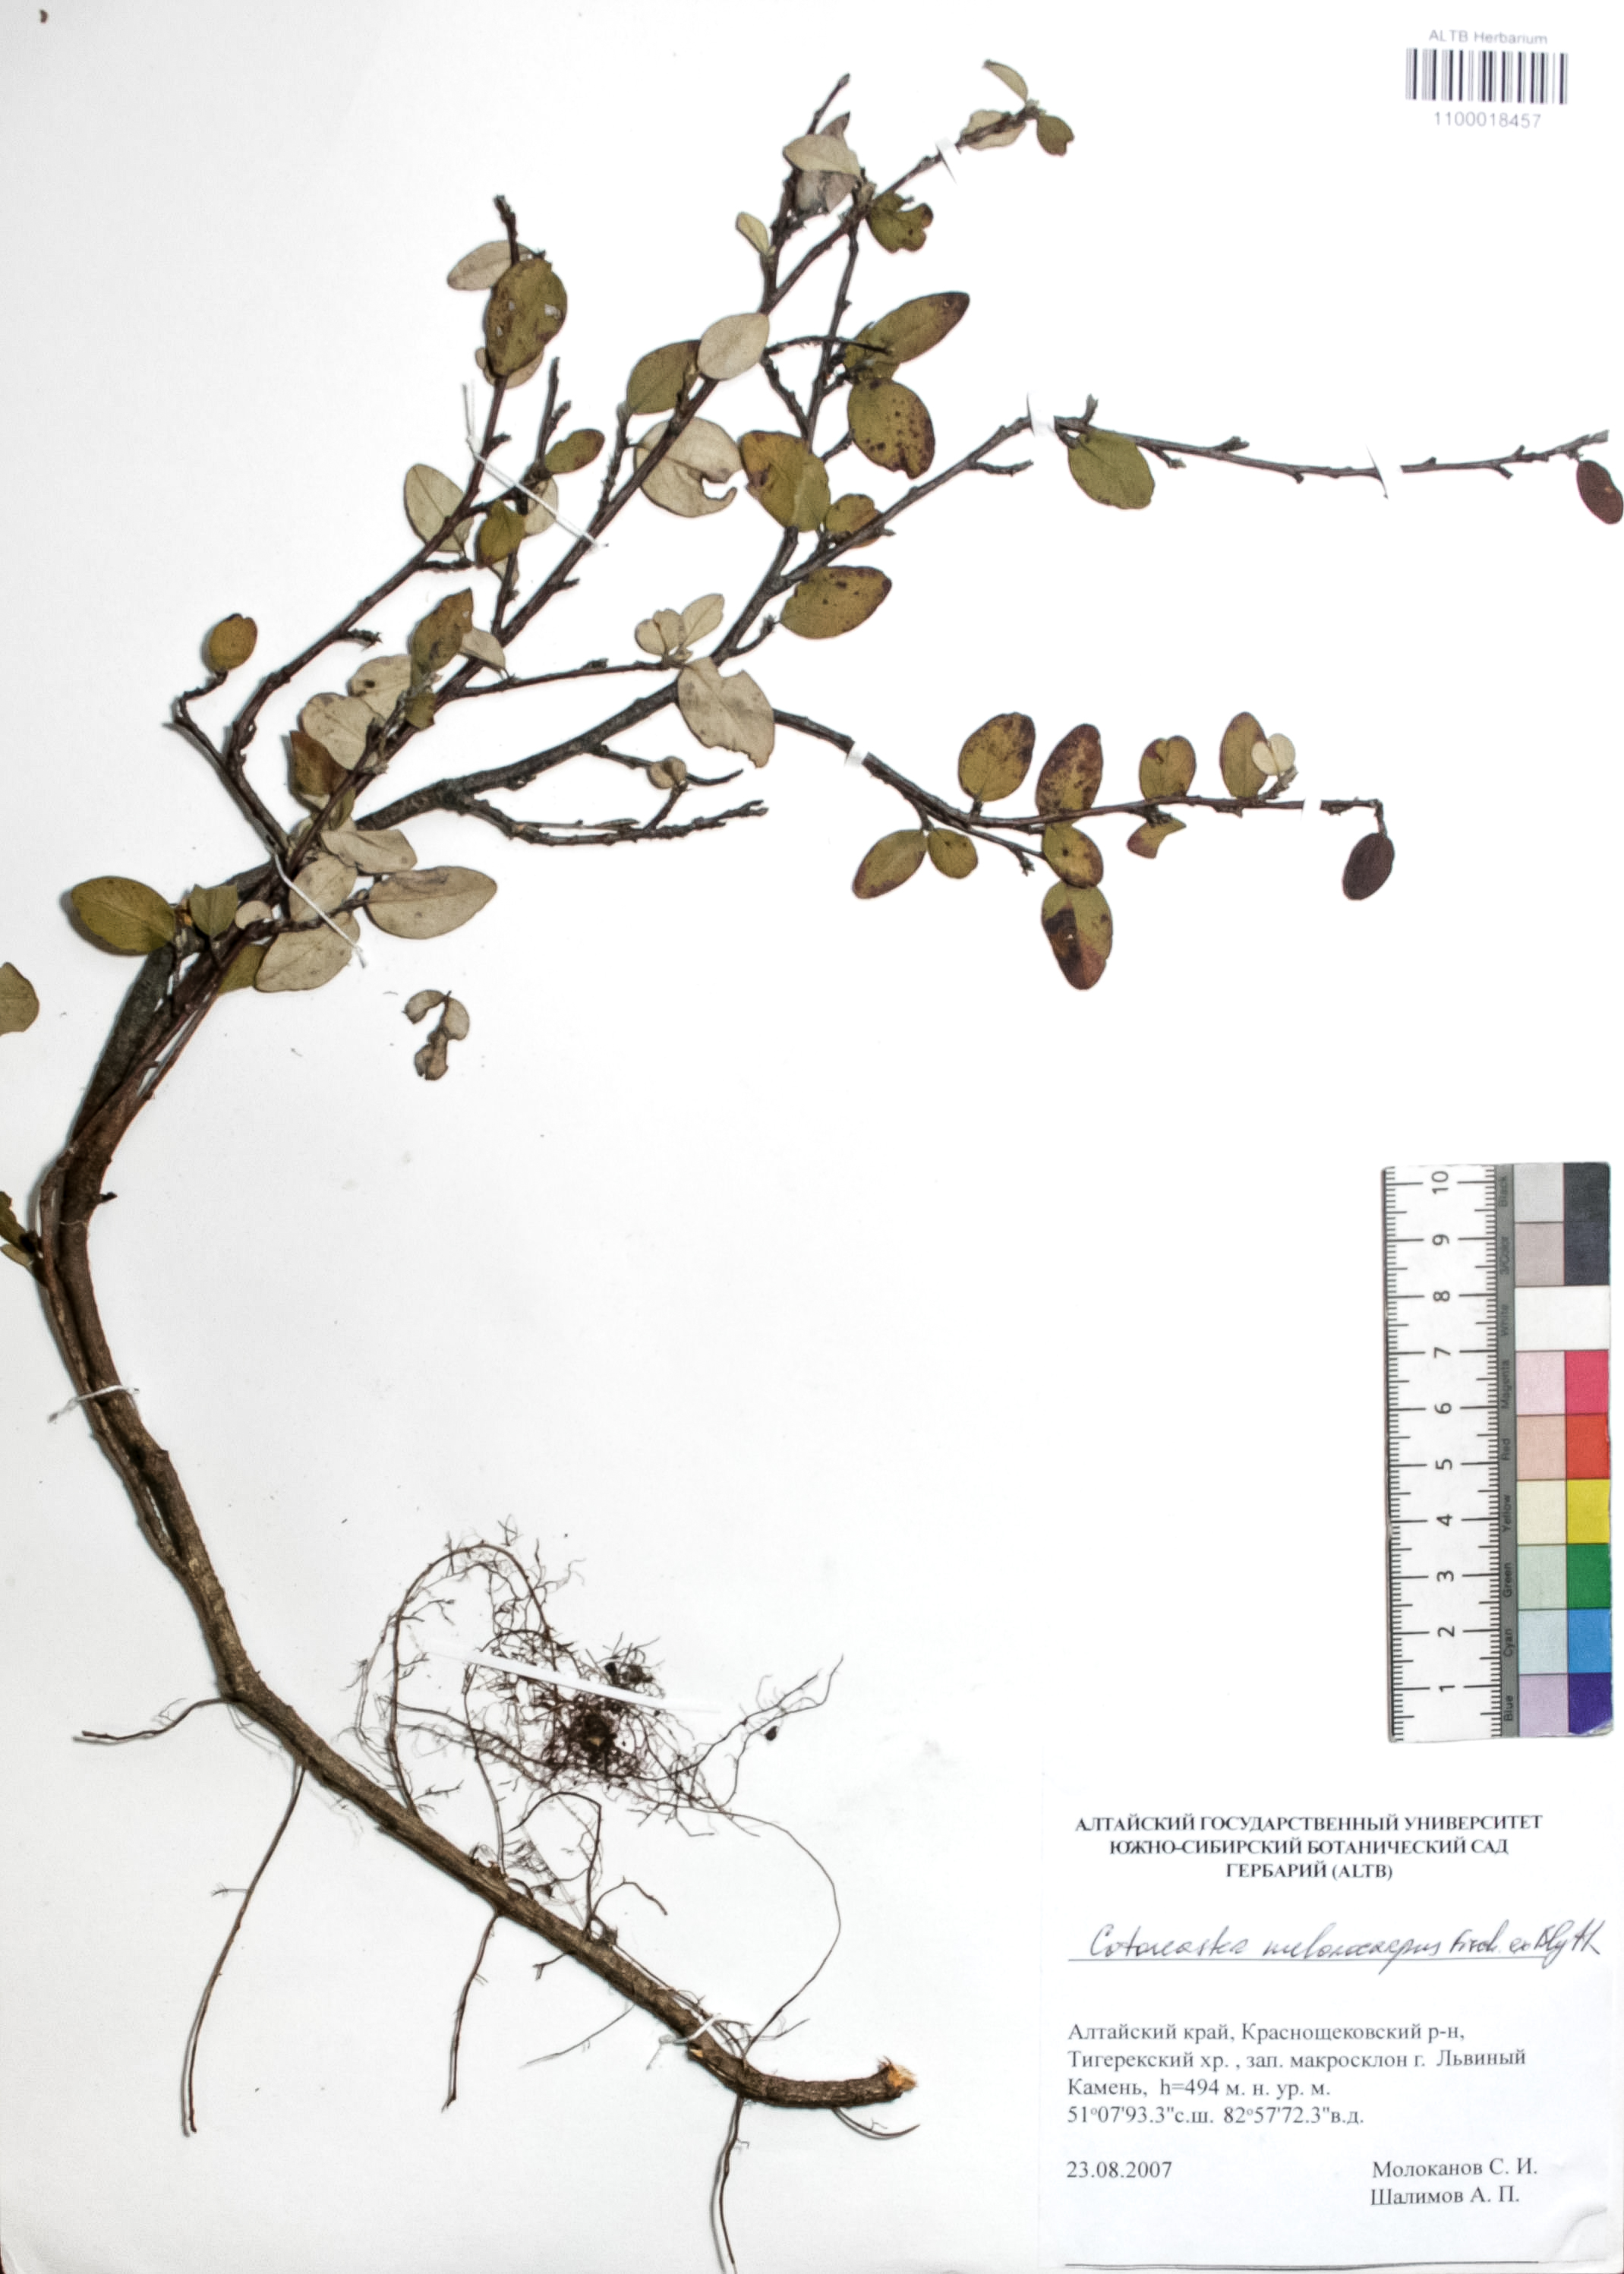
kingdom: Plantae
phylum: Tracheophyta
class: Magnoliopsida
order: Rosales
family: Rosaceae
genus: Cotoneaster
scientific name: Cotoneaster niger
